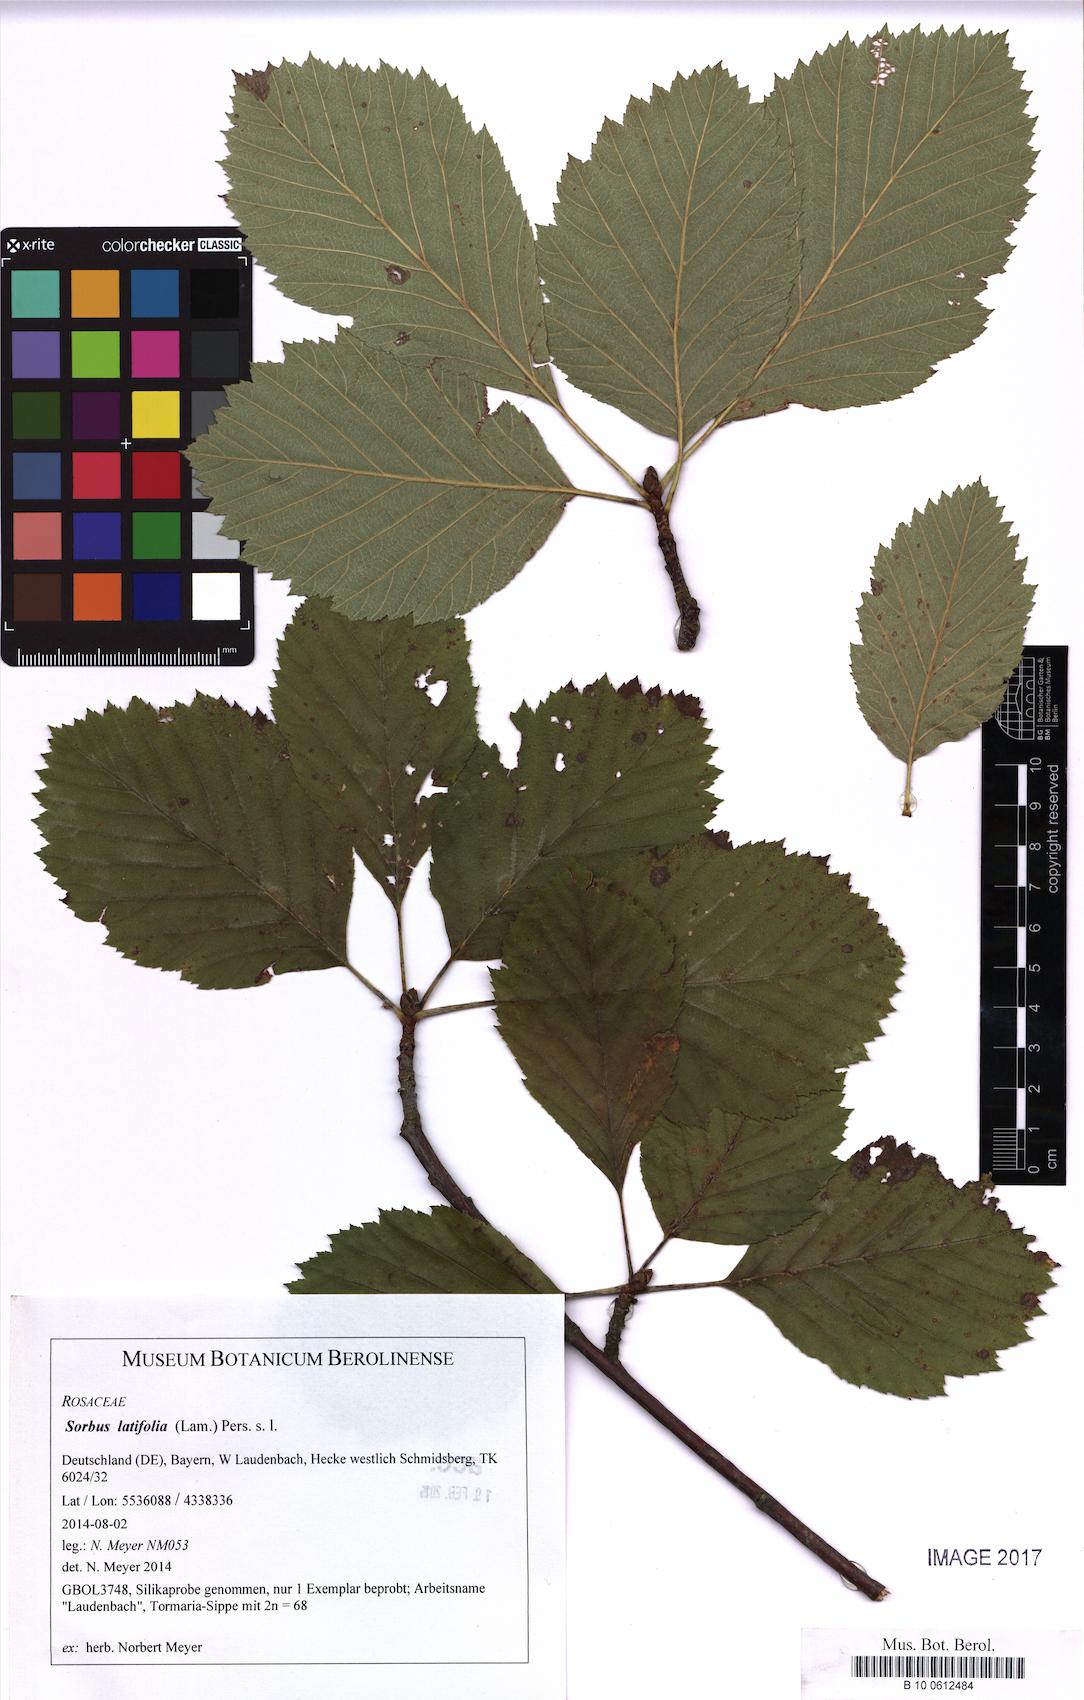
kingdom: Plantae
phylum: Tracheophyta
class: Magnoliopsida
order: Rosales
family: Rosaceae
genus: Karpatiosorbus
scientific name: Karpatiosorbus latifolia
